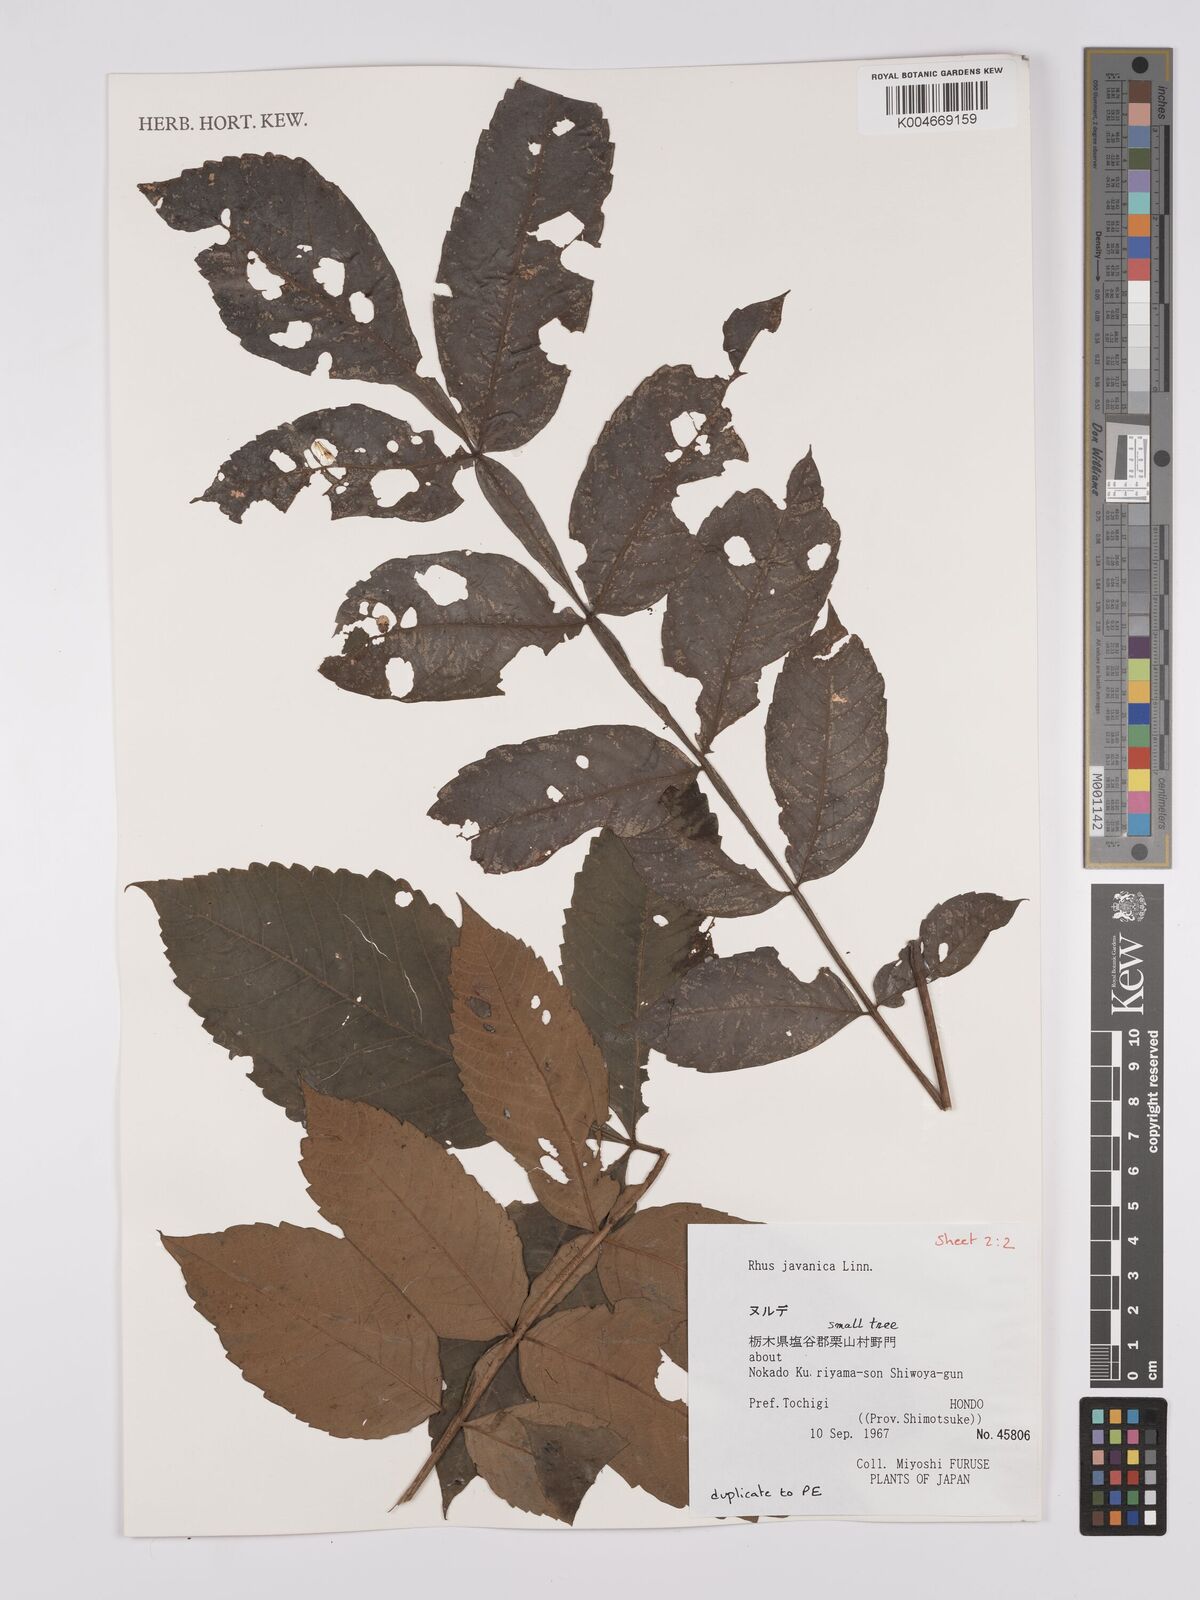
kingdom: Plantae
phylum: Tracheophyta
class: Magnoliopsida
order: Sapindales
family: Anacardiaceae
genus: Rhus
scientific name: Rhus chinensis
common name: Chinese gall
